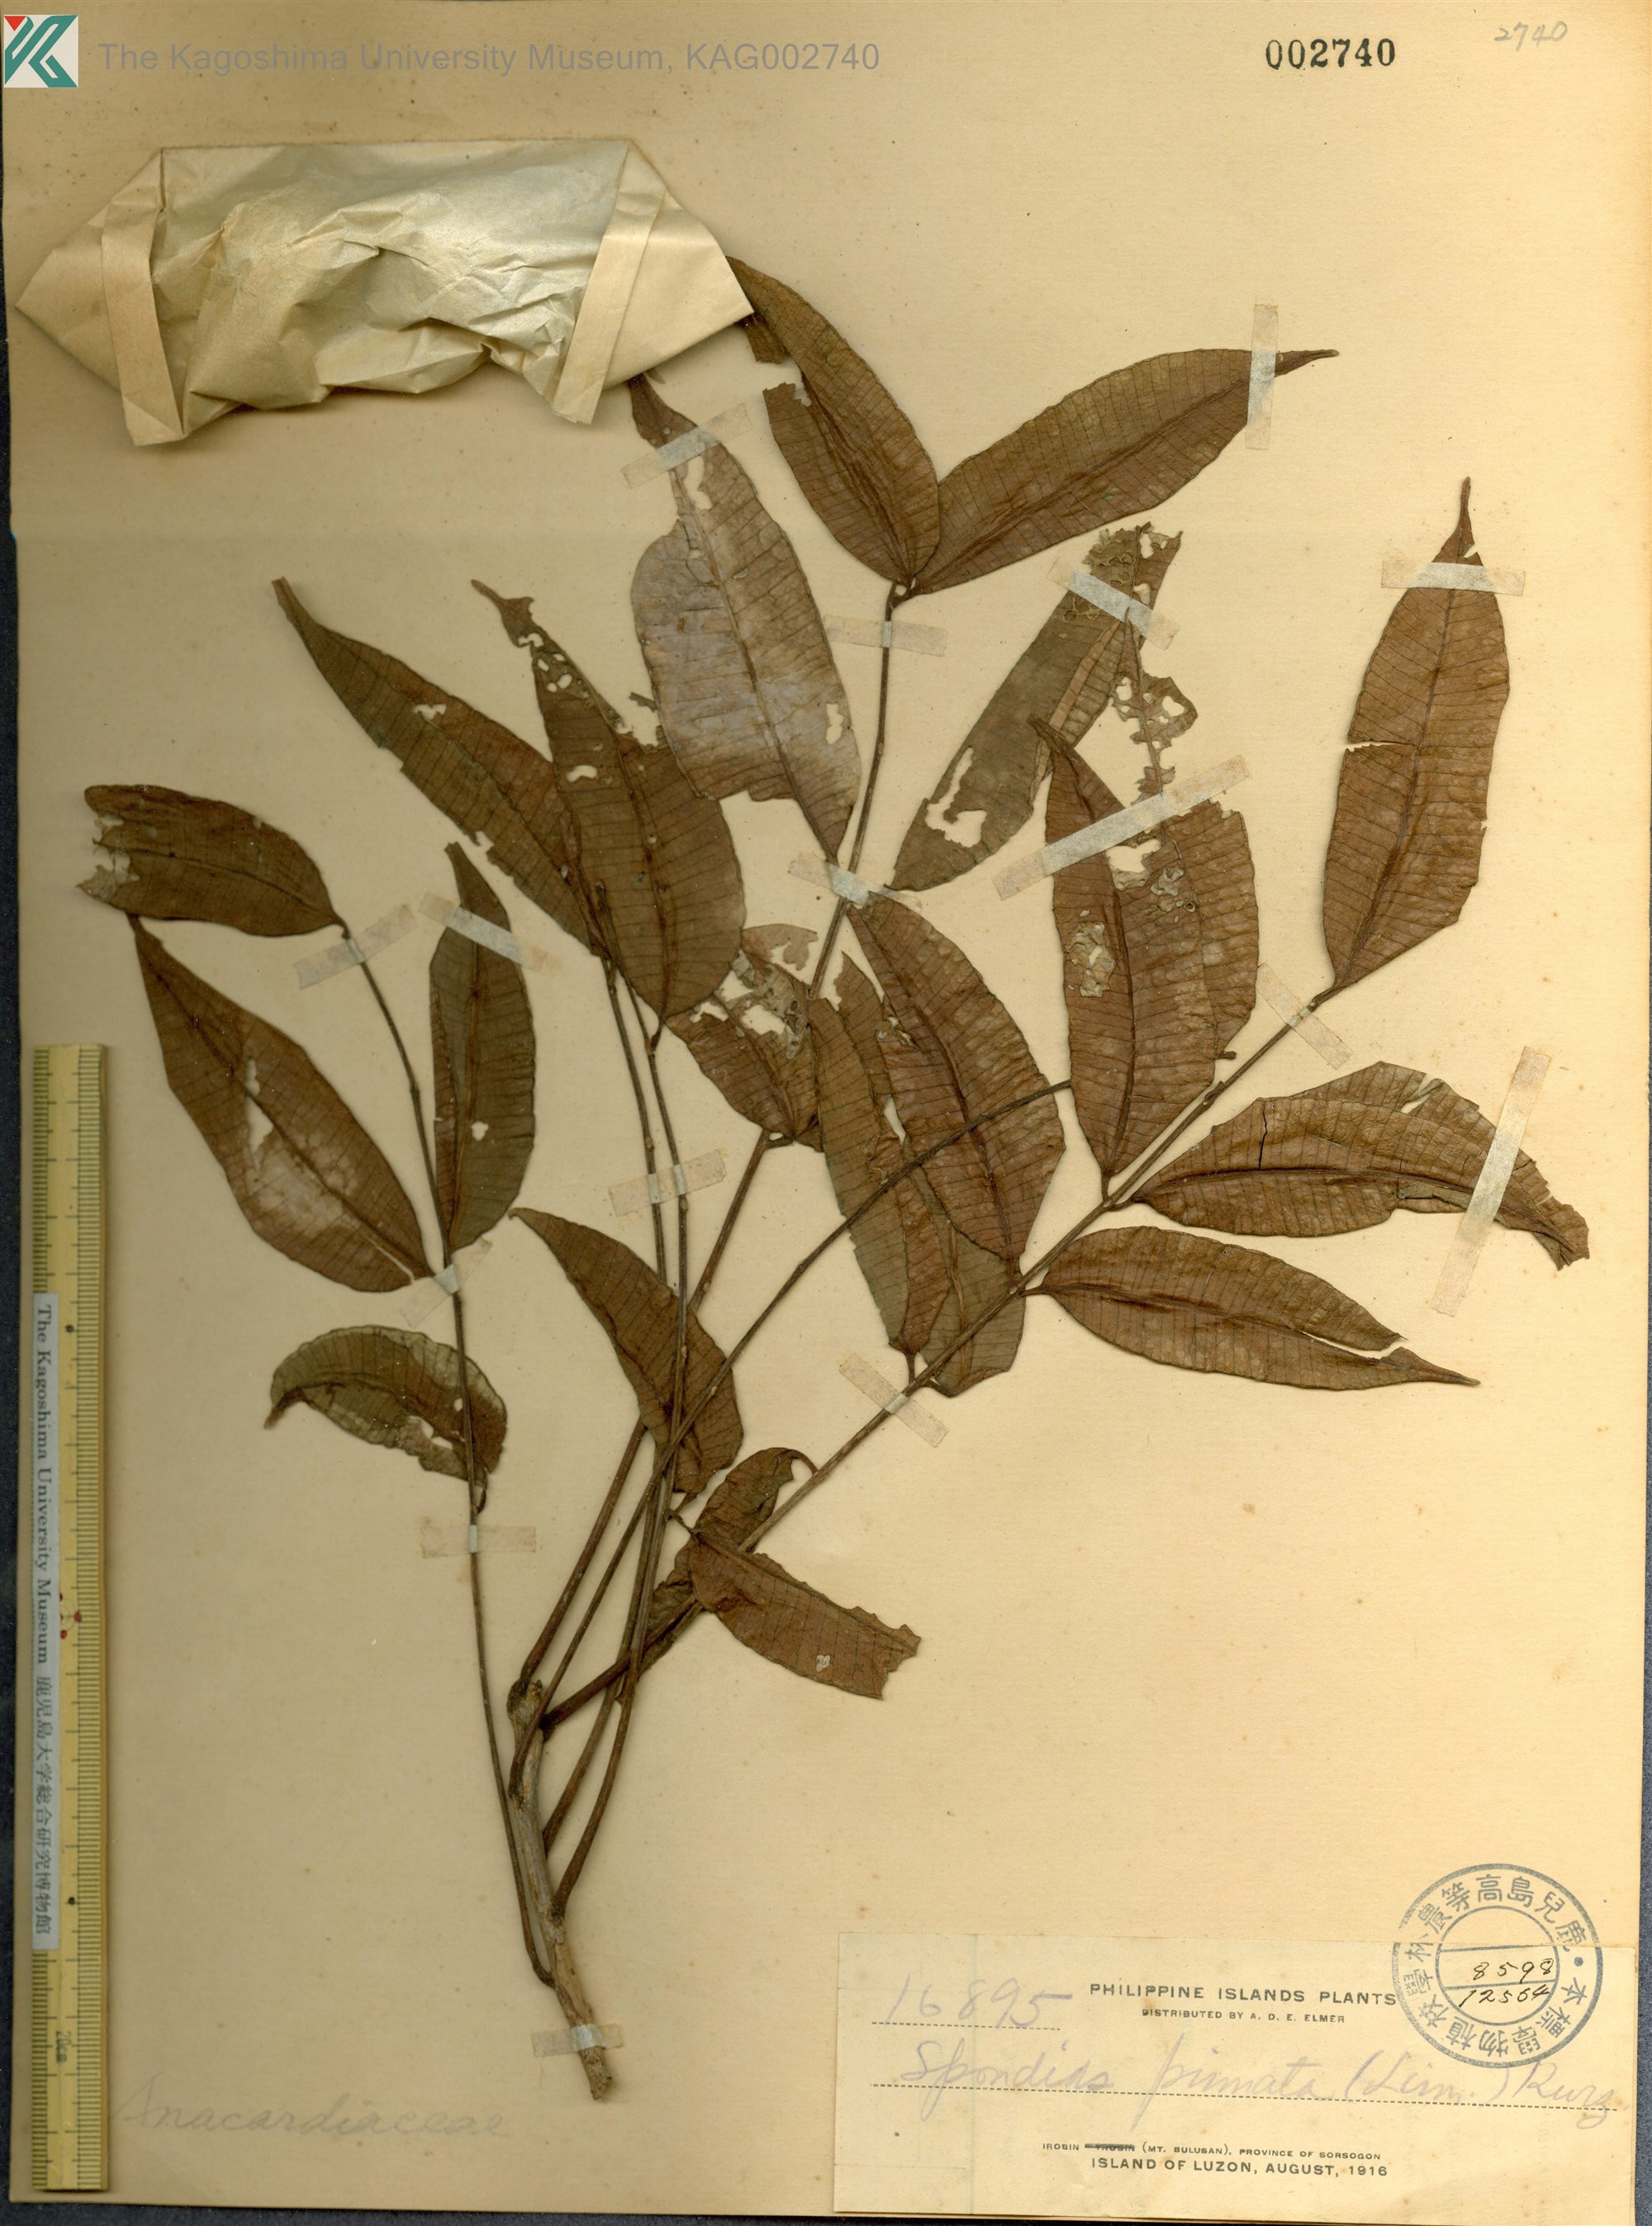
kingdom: Plantae
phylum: Tracheophyta
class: Magnoliopsida
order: Sapindales
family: Anacardiaceae
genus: Spondias
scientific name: Spondias
